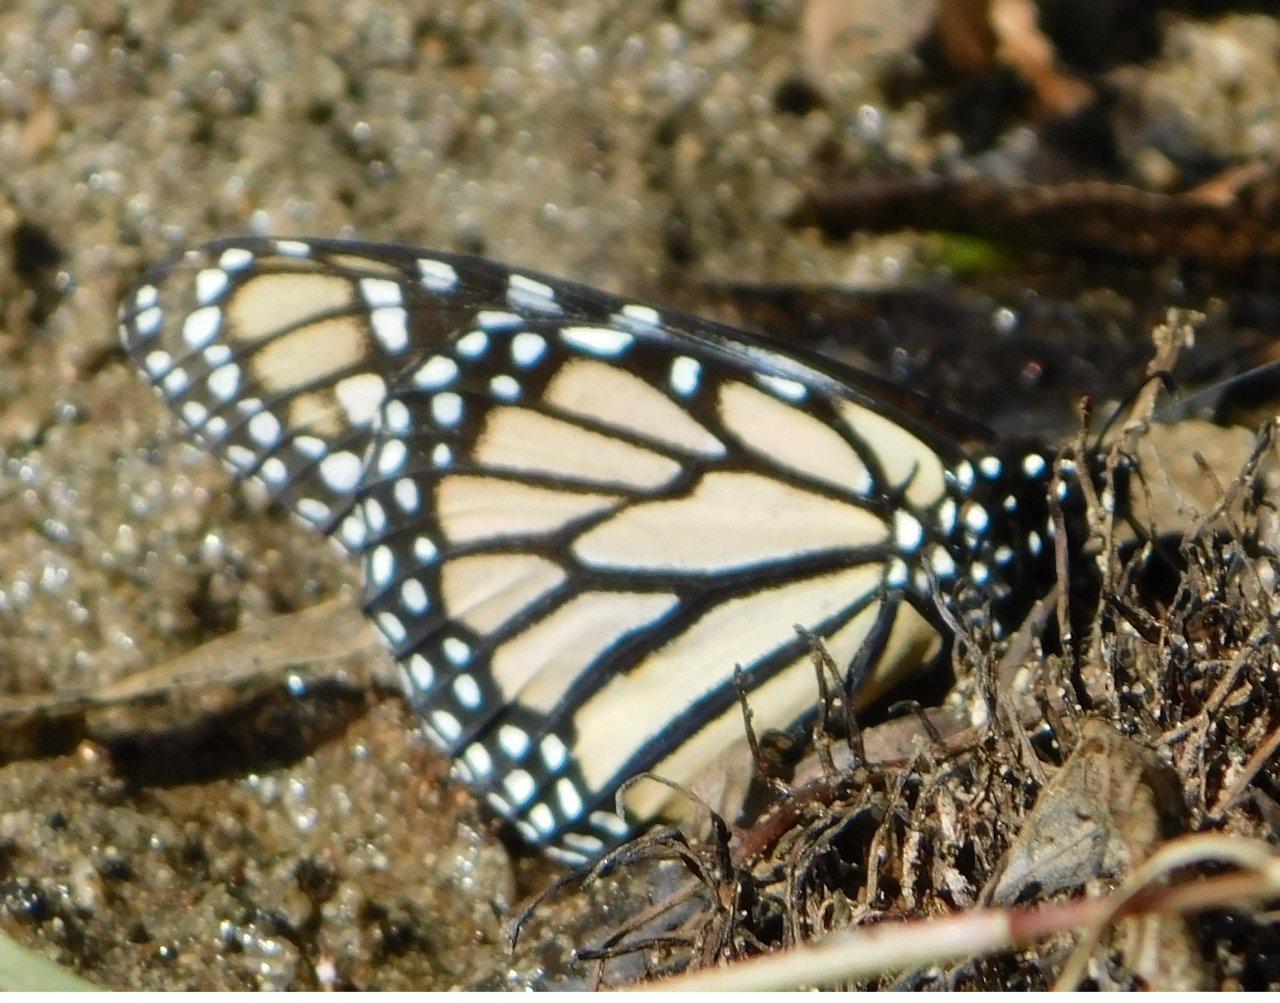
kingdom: Animalia
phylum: Arthropoda
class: Insecta
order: Lepidoptera
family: Nymphalidae
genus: Danaus
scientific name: Danaus plexippus
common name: Monarch
